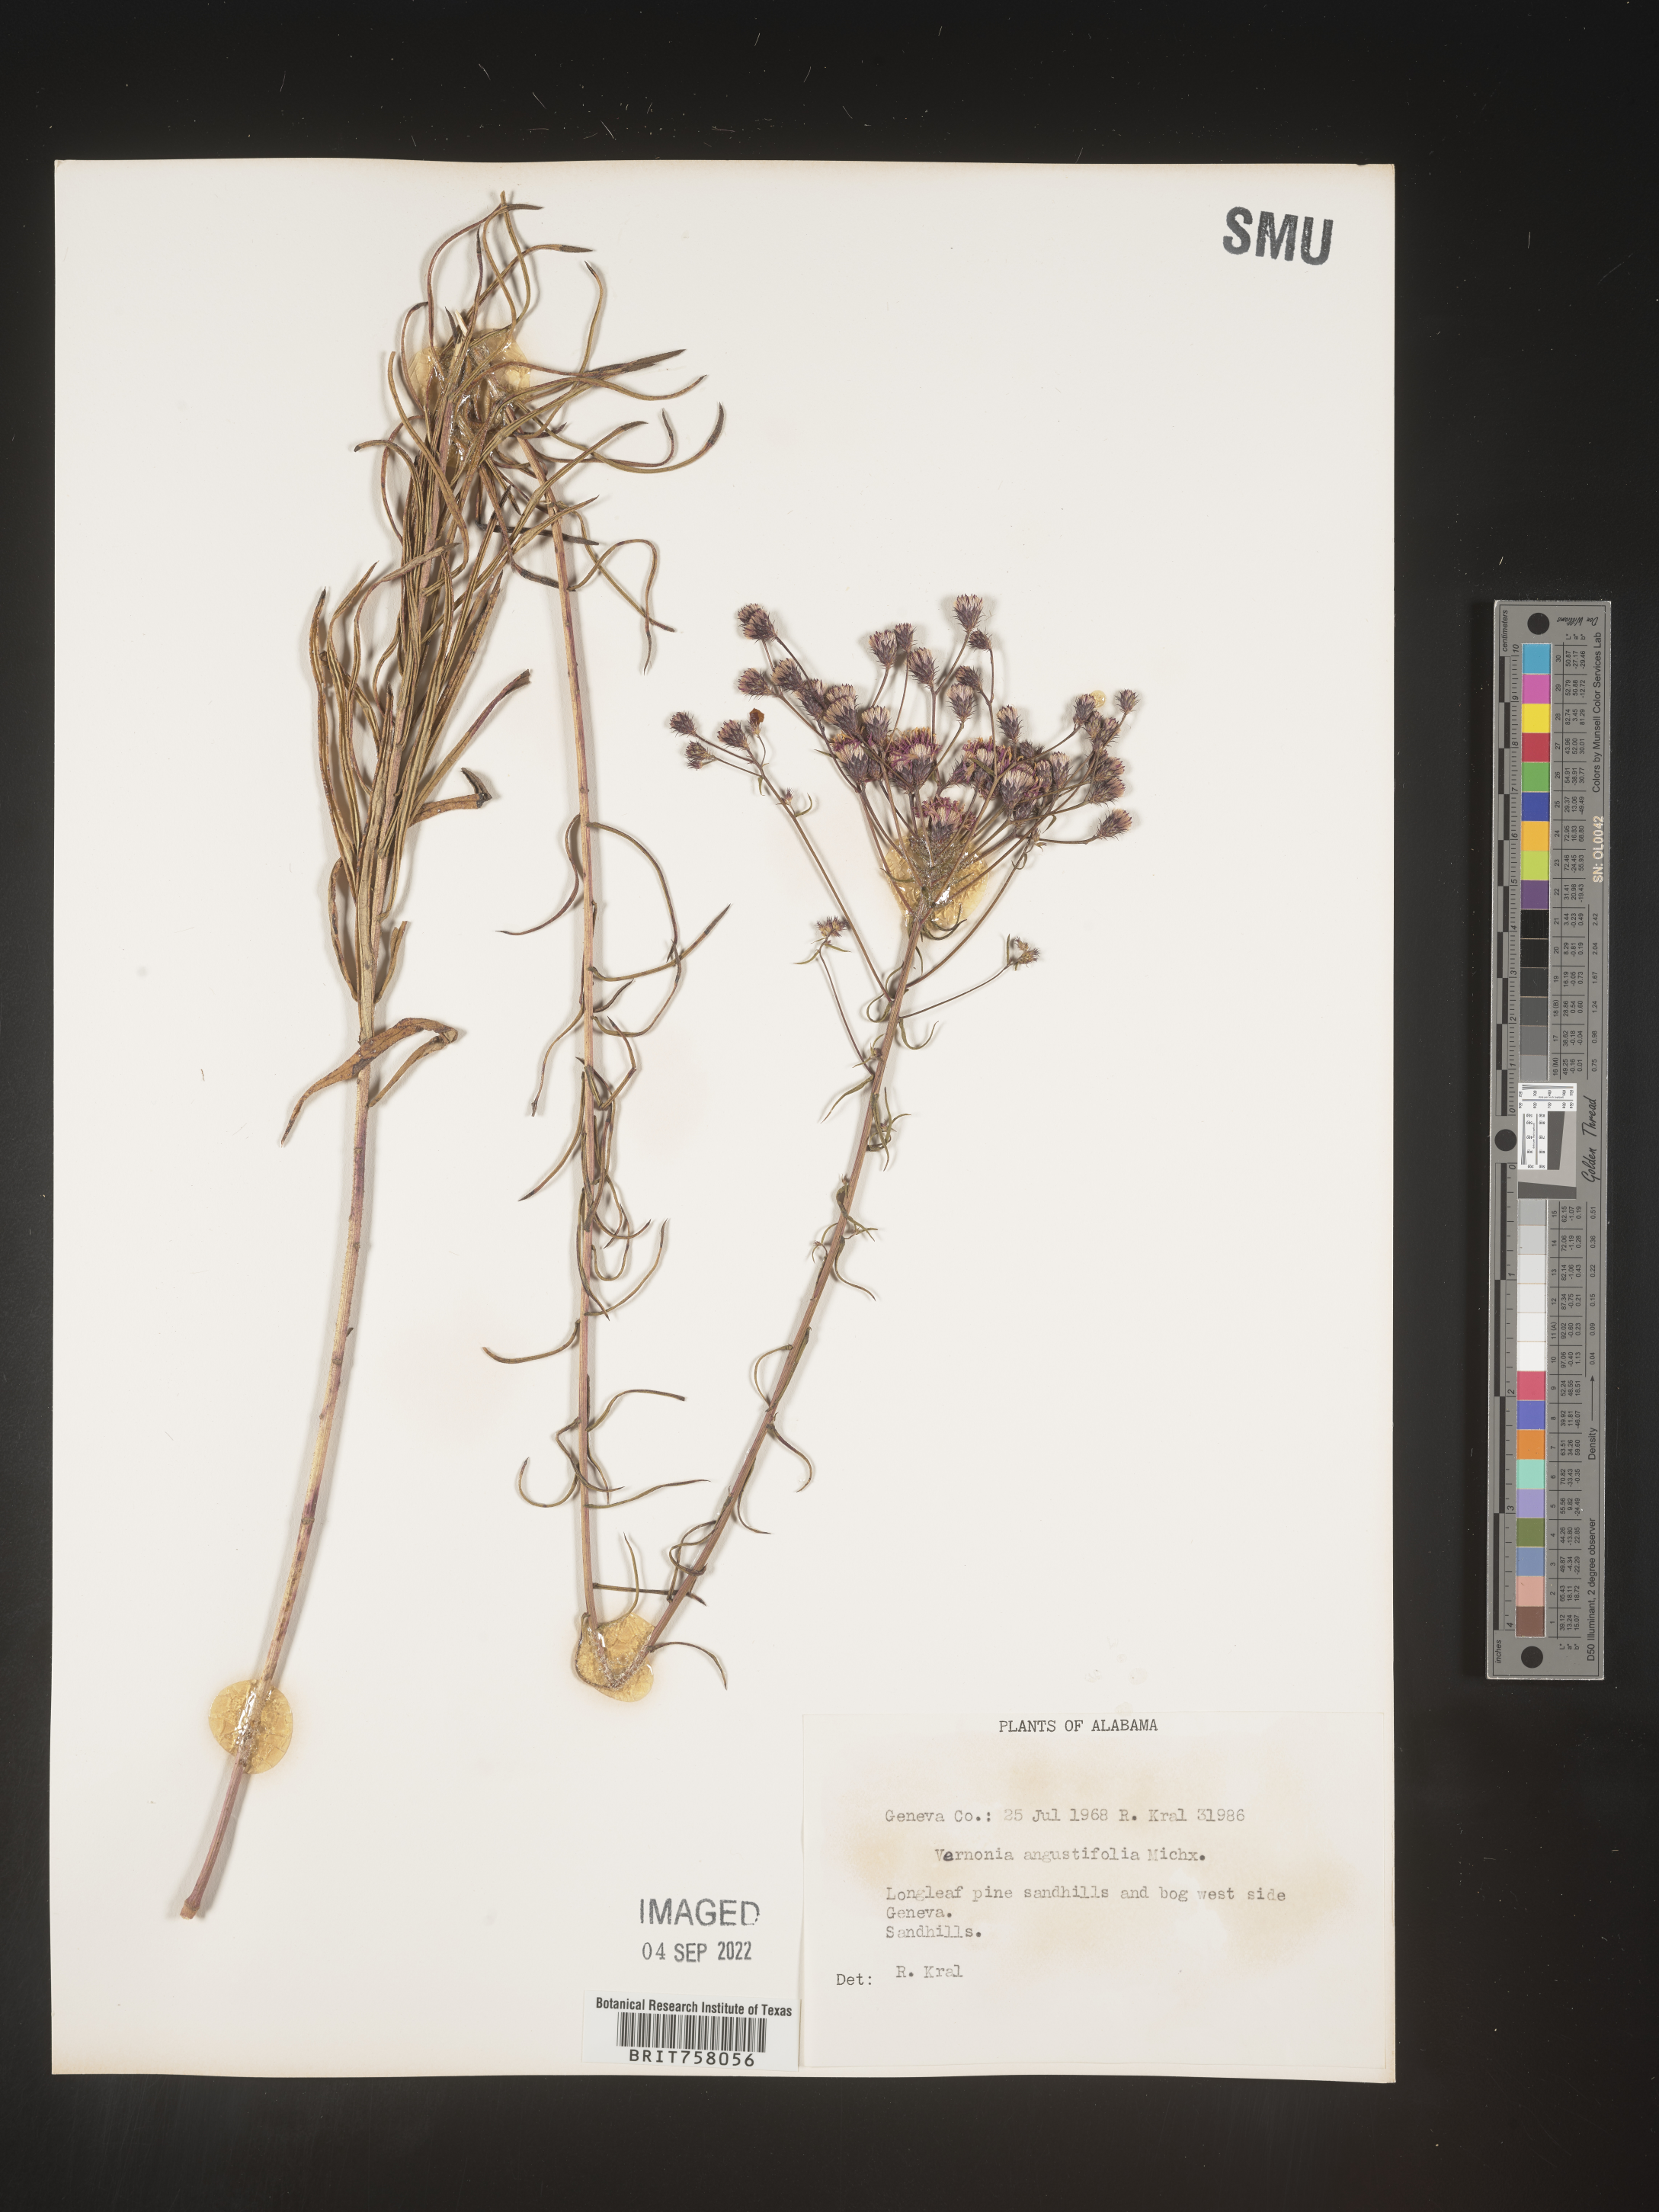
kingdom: Plantae
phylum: Tracheophyta
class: Magnoliopsida
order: Asterales
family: Asteraceae
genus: Vernonia
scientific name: Vernonia angustifolia
